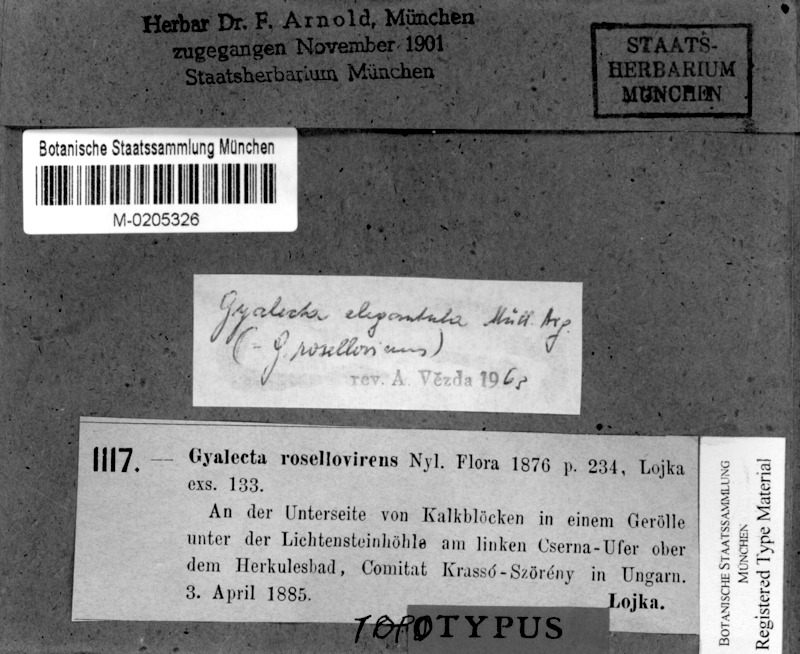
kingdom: Fungi
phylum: Ascomycota
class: Lecanoromycetes
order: Gyalectales
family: Gyalectaceae
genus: Gyalecta
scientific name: Gyalecta subclausa
